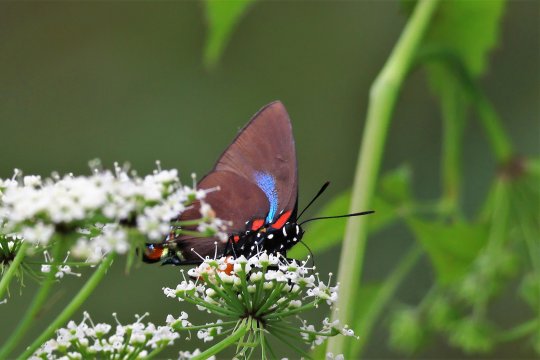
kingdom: Animalia
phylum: Arthropoda
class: Insecta
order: Lepidoptera
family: Lycaenidae
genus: Atlides
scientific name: Atlides halesus
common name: Great Purple Hairstreak
